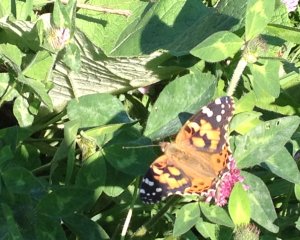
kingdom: Animalia
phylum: Arthropoda
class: Insecta
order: Lepidoptera
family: Nymphalidae
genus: Vanessa
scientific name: Vanessa cardui
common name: Painted Lady
